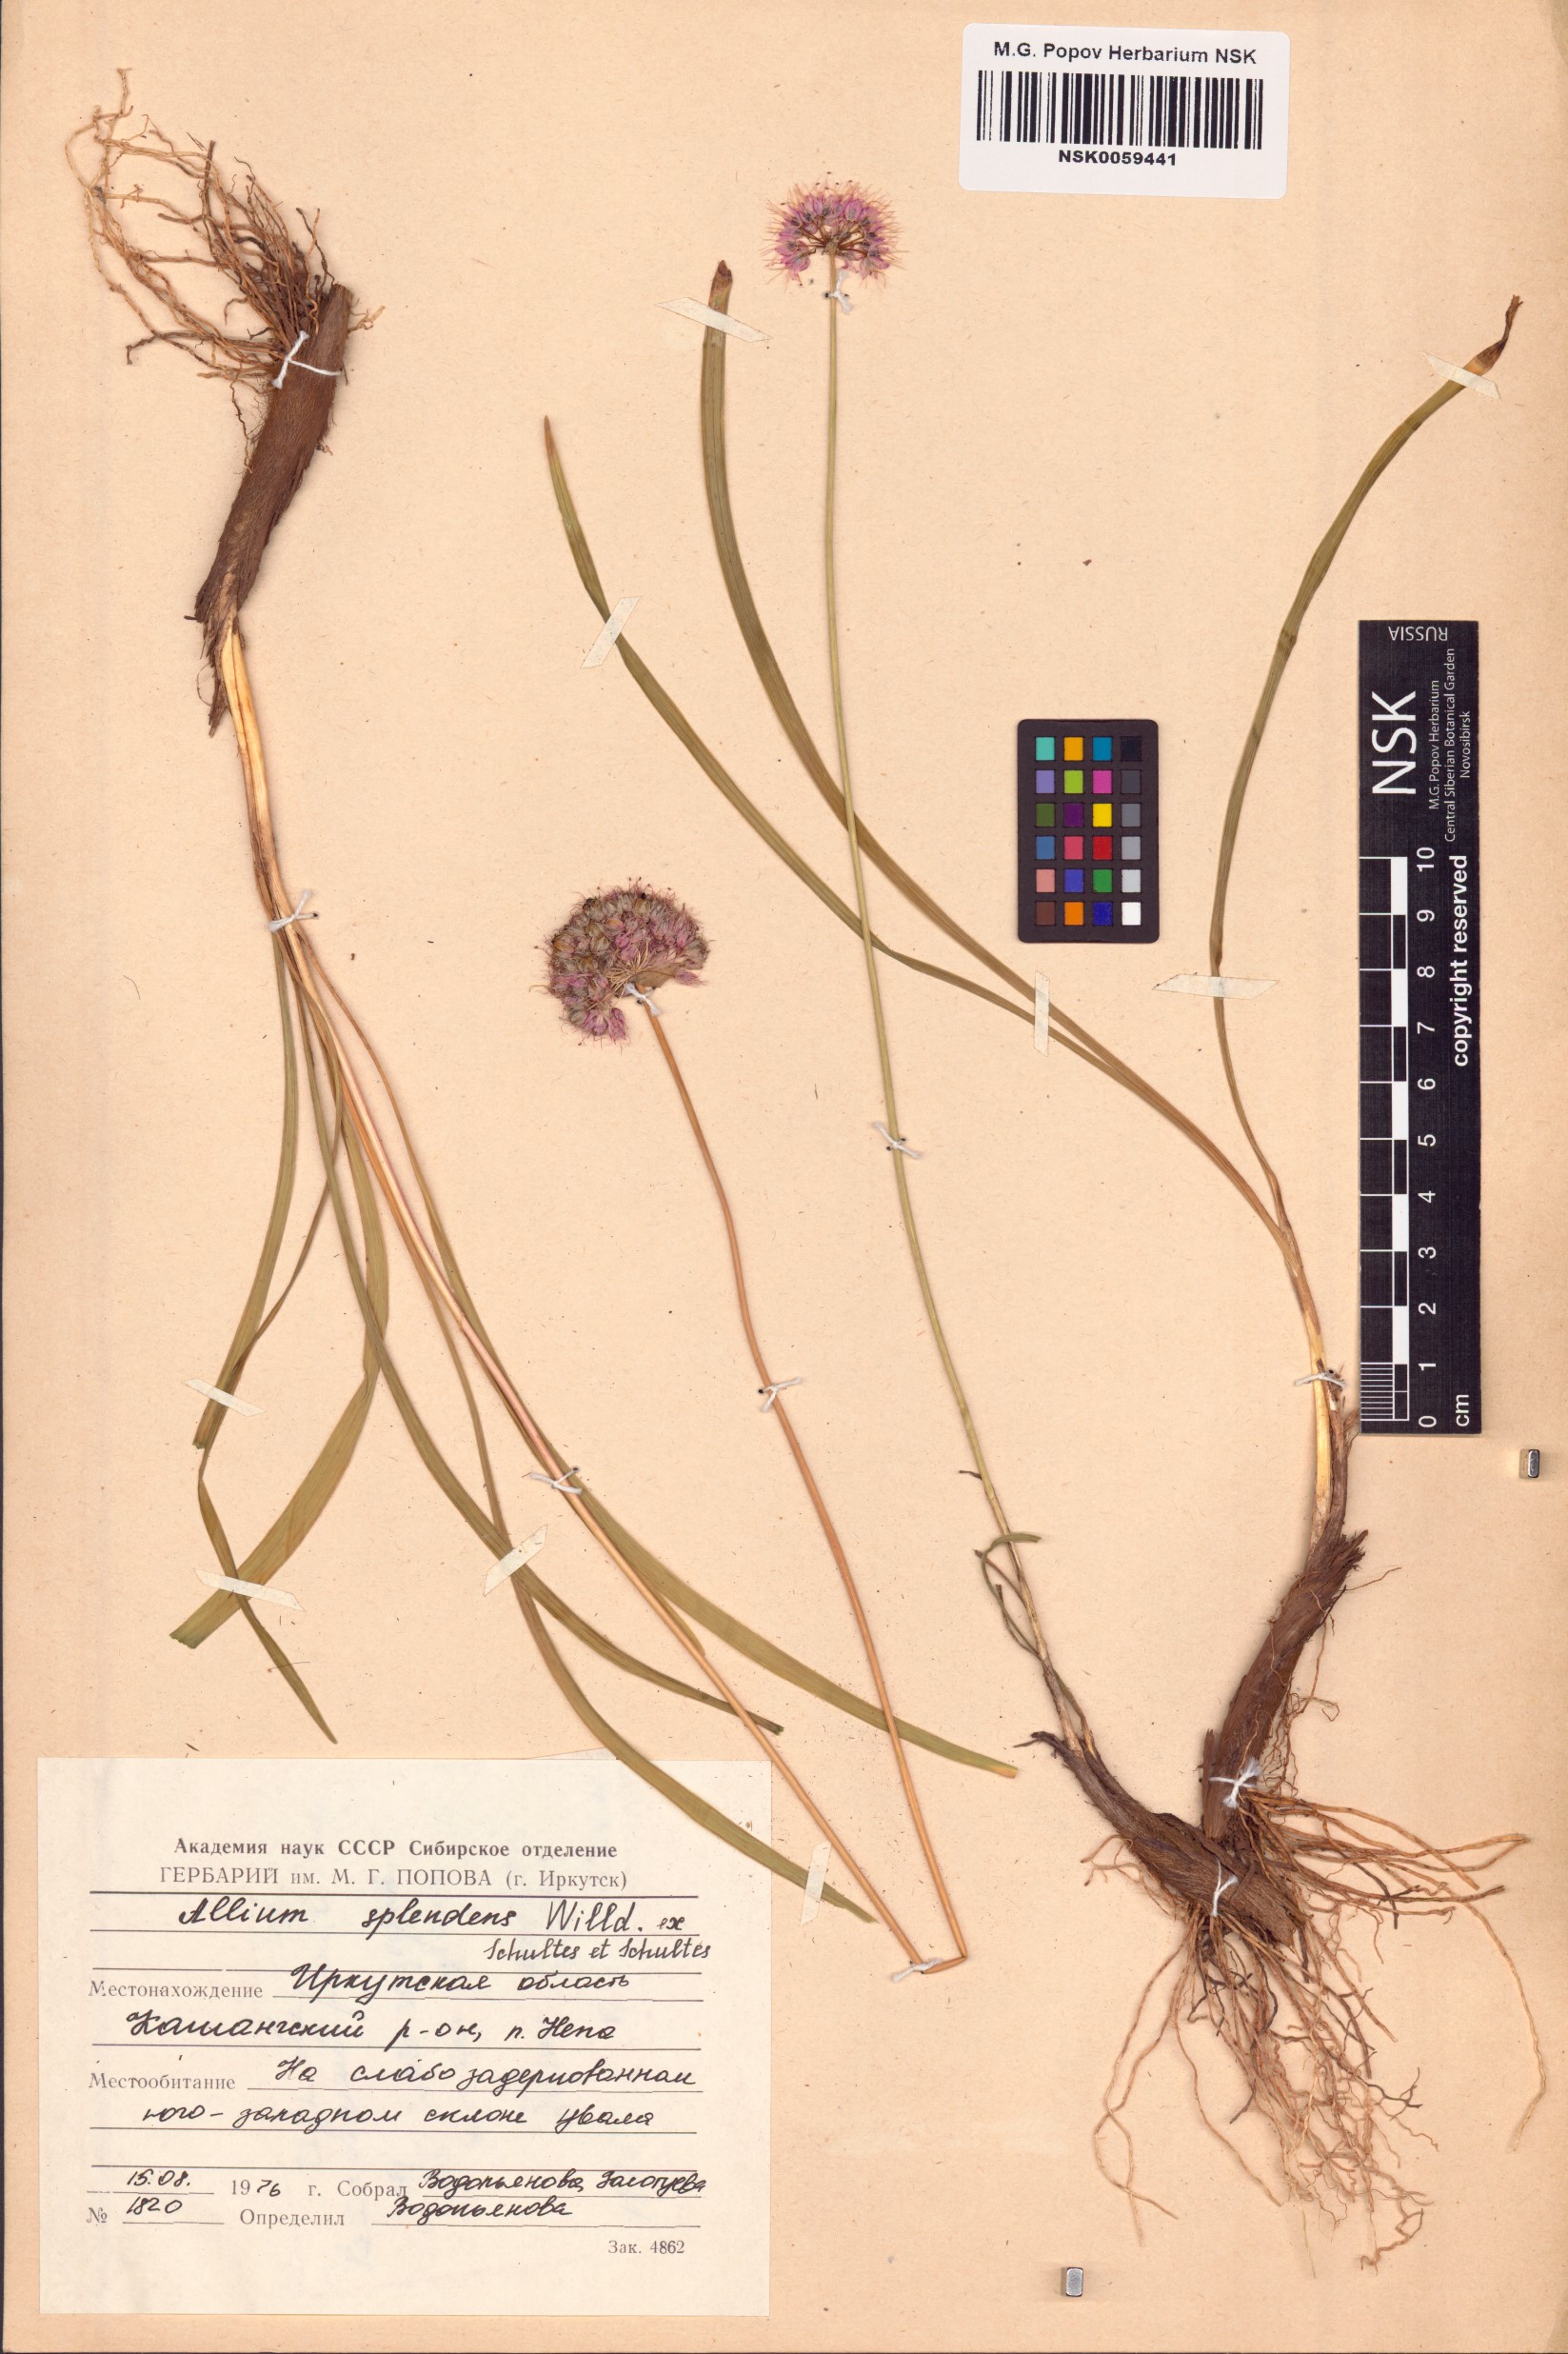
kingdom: Plantae
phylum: Tracheophyta
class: Liliopsida
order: Asparagales
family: Amaryllidaceae
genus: Allium
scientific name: Allium splendens
